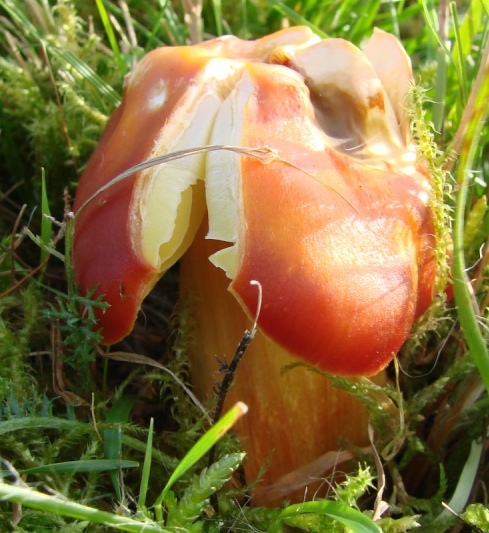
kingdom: Fungi
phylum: Basidiomycota
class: Agaricomycetes
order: Agaricales
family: Hygrophoraceae
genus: Hygrocybe
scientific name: Hygrocybe punicea
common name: skarlagen-vokshat
